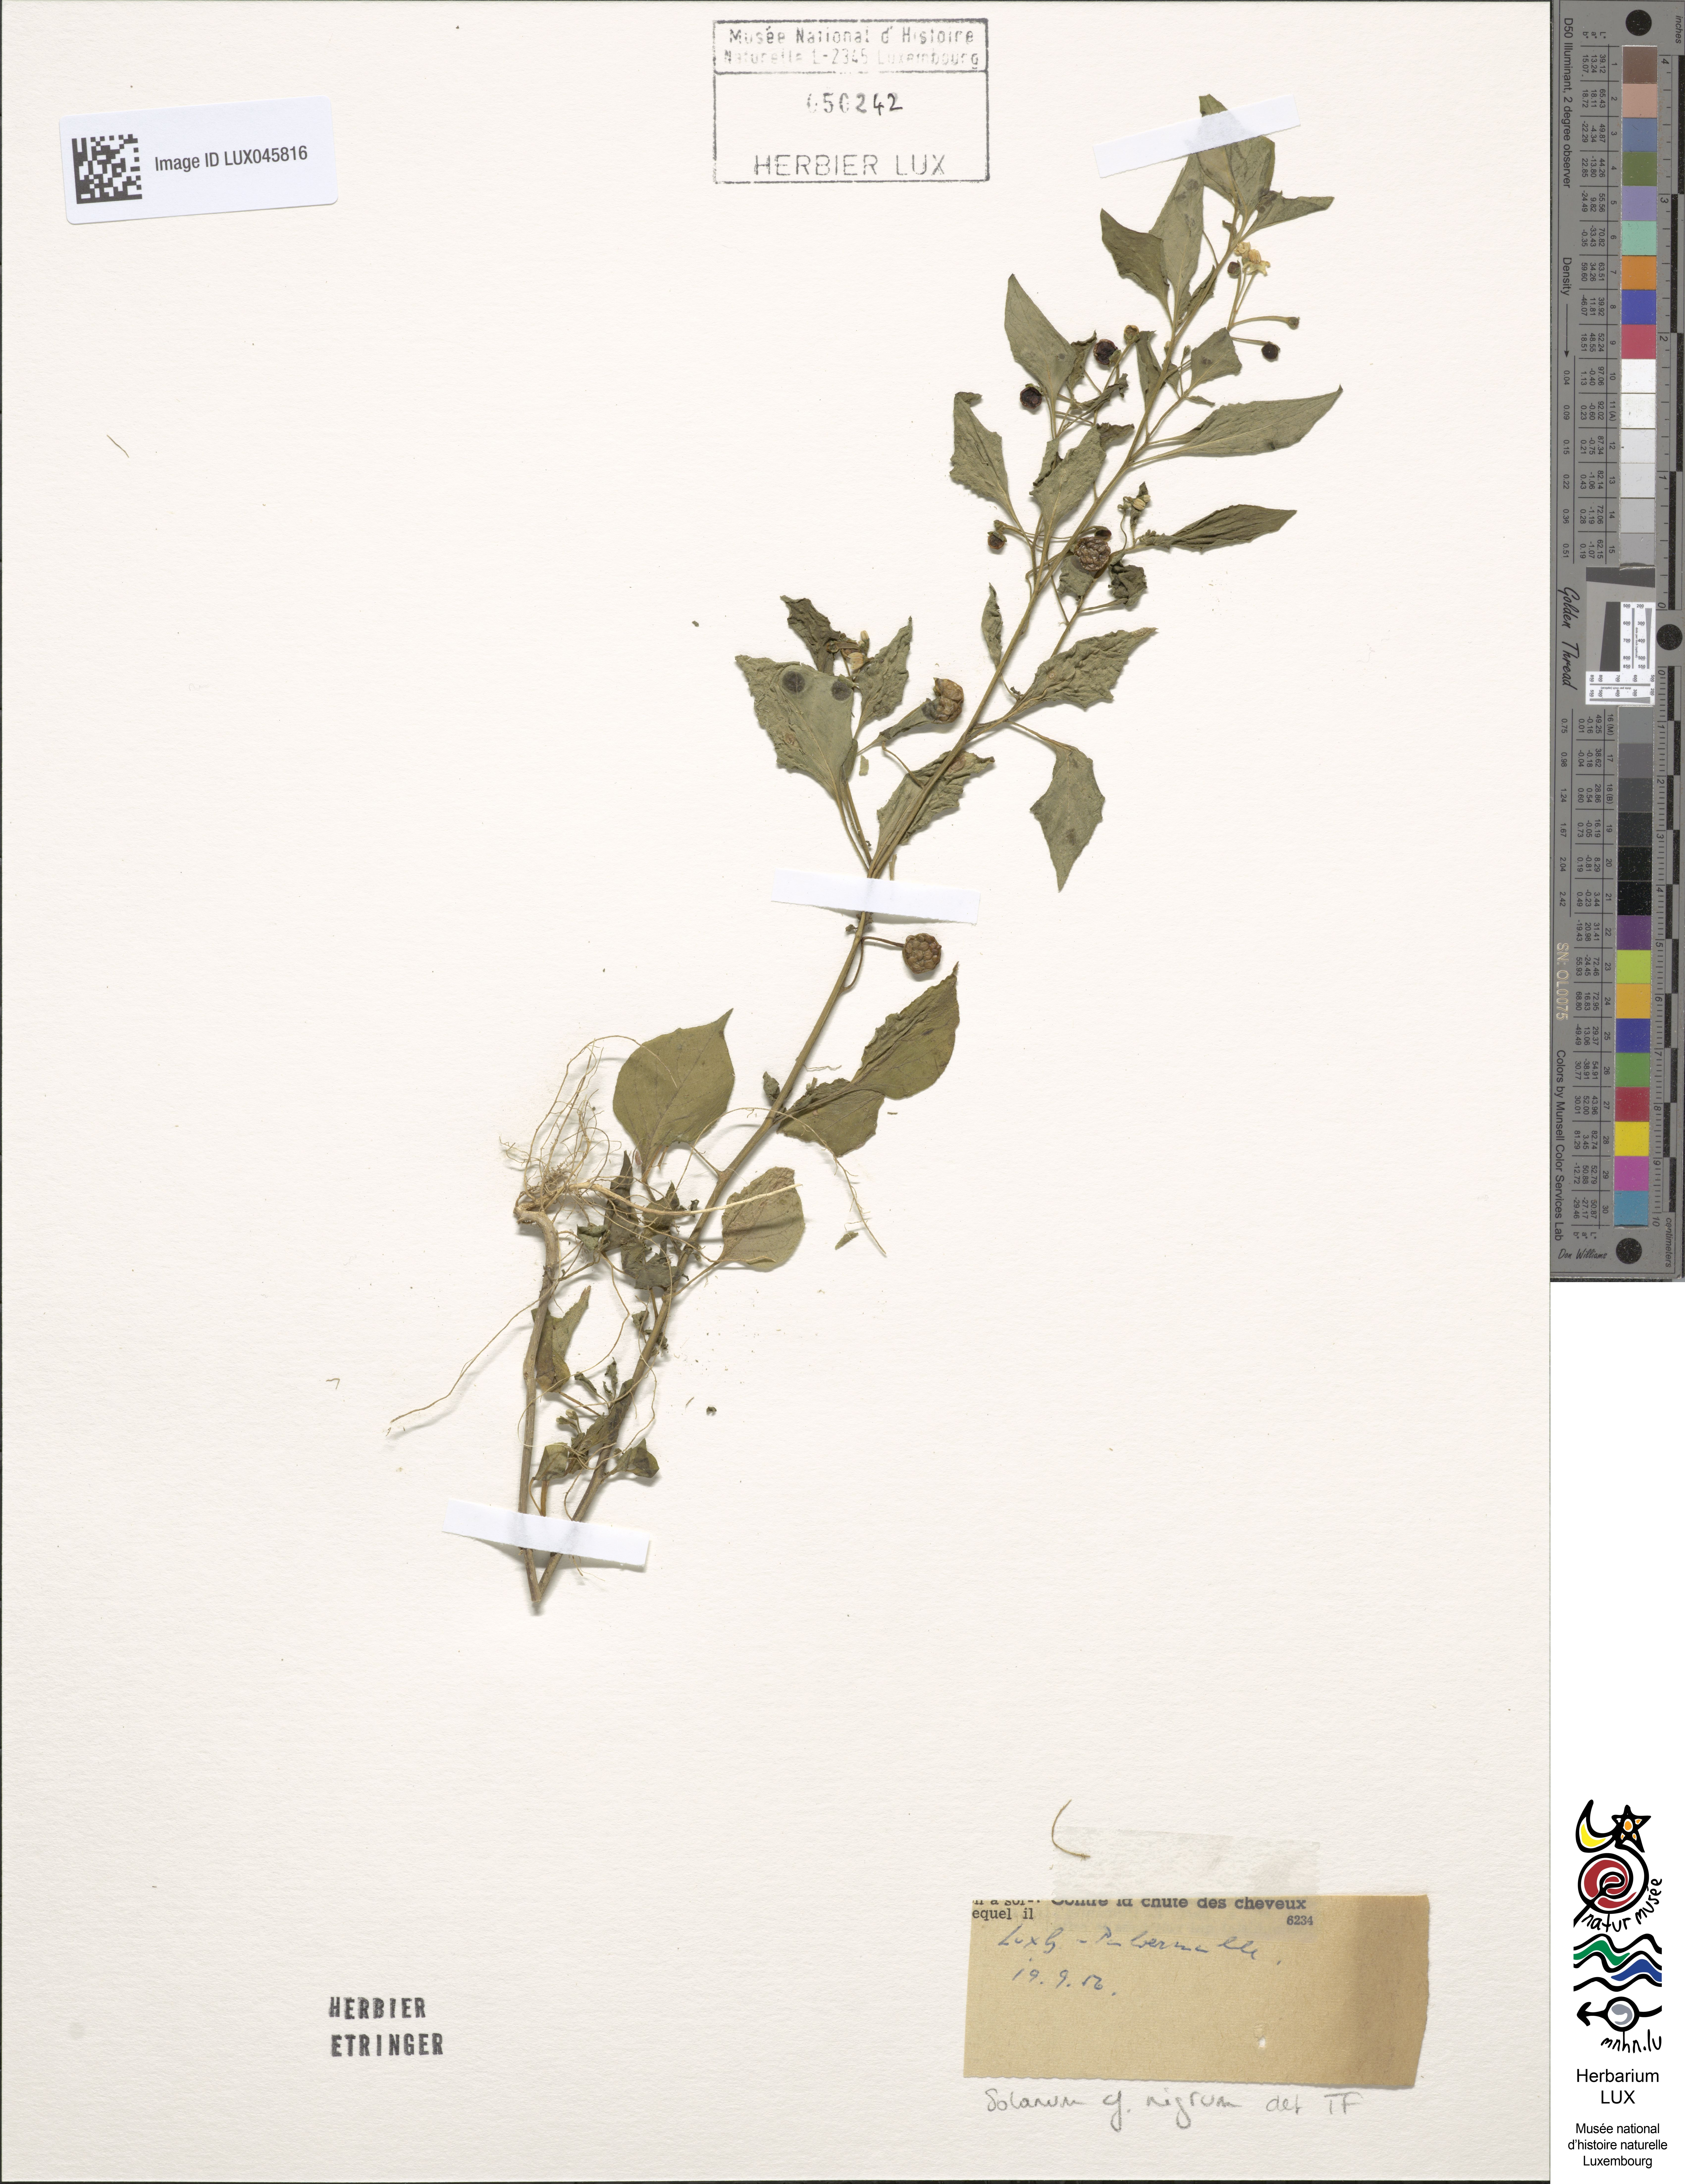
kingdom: Plantae
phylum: Tracheophyta
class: Magnoliopsida
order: Solanales
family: Solanaceae
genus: Solanum
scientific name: Solanum nigrum
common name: Black nightshade
